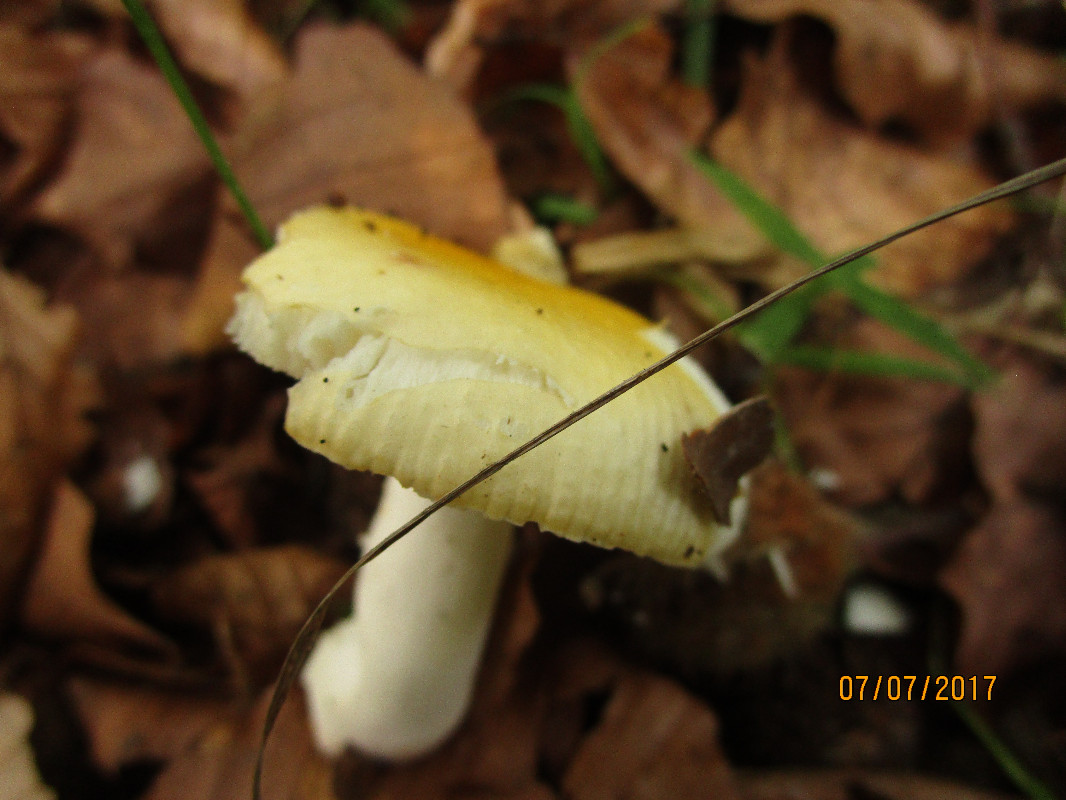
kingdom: Fungi
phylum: Basidiomycota
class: Agaricomycetes
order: Russulales
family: Russulaceae
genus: Russula
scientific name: Russula solaris
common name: sol-skørhat
